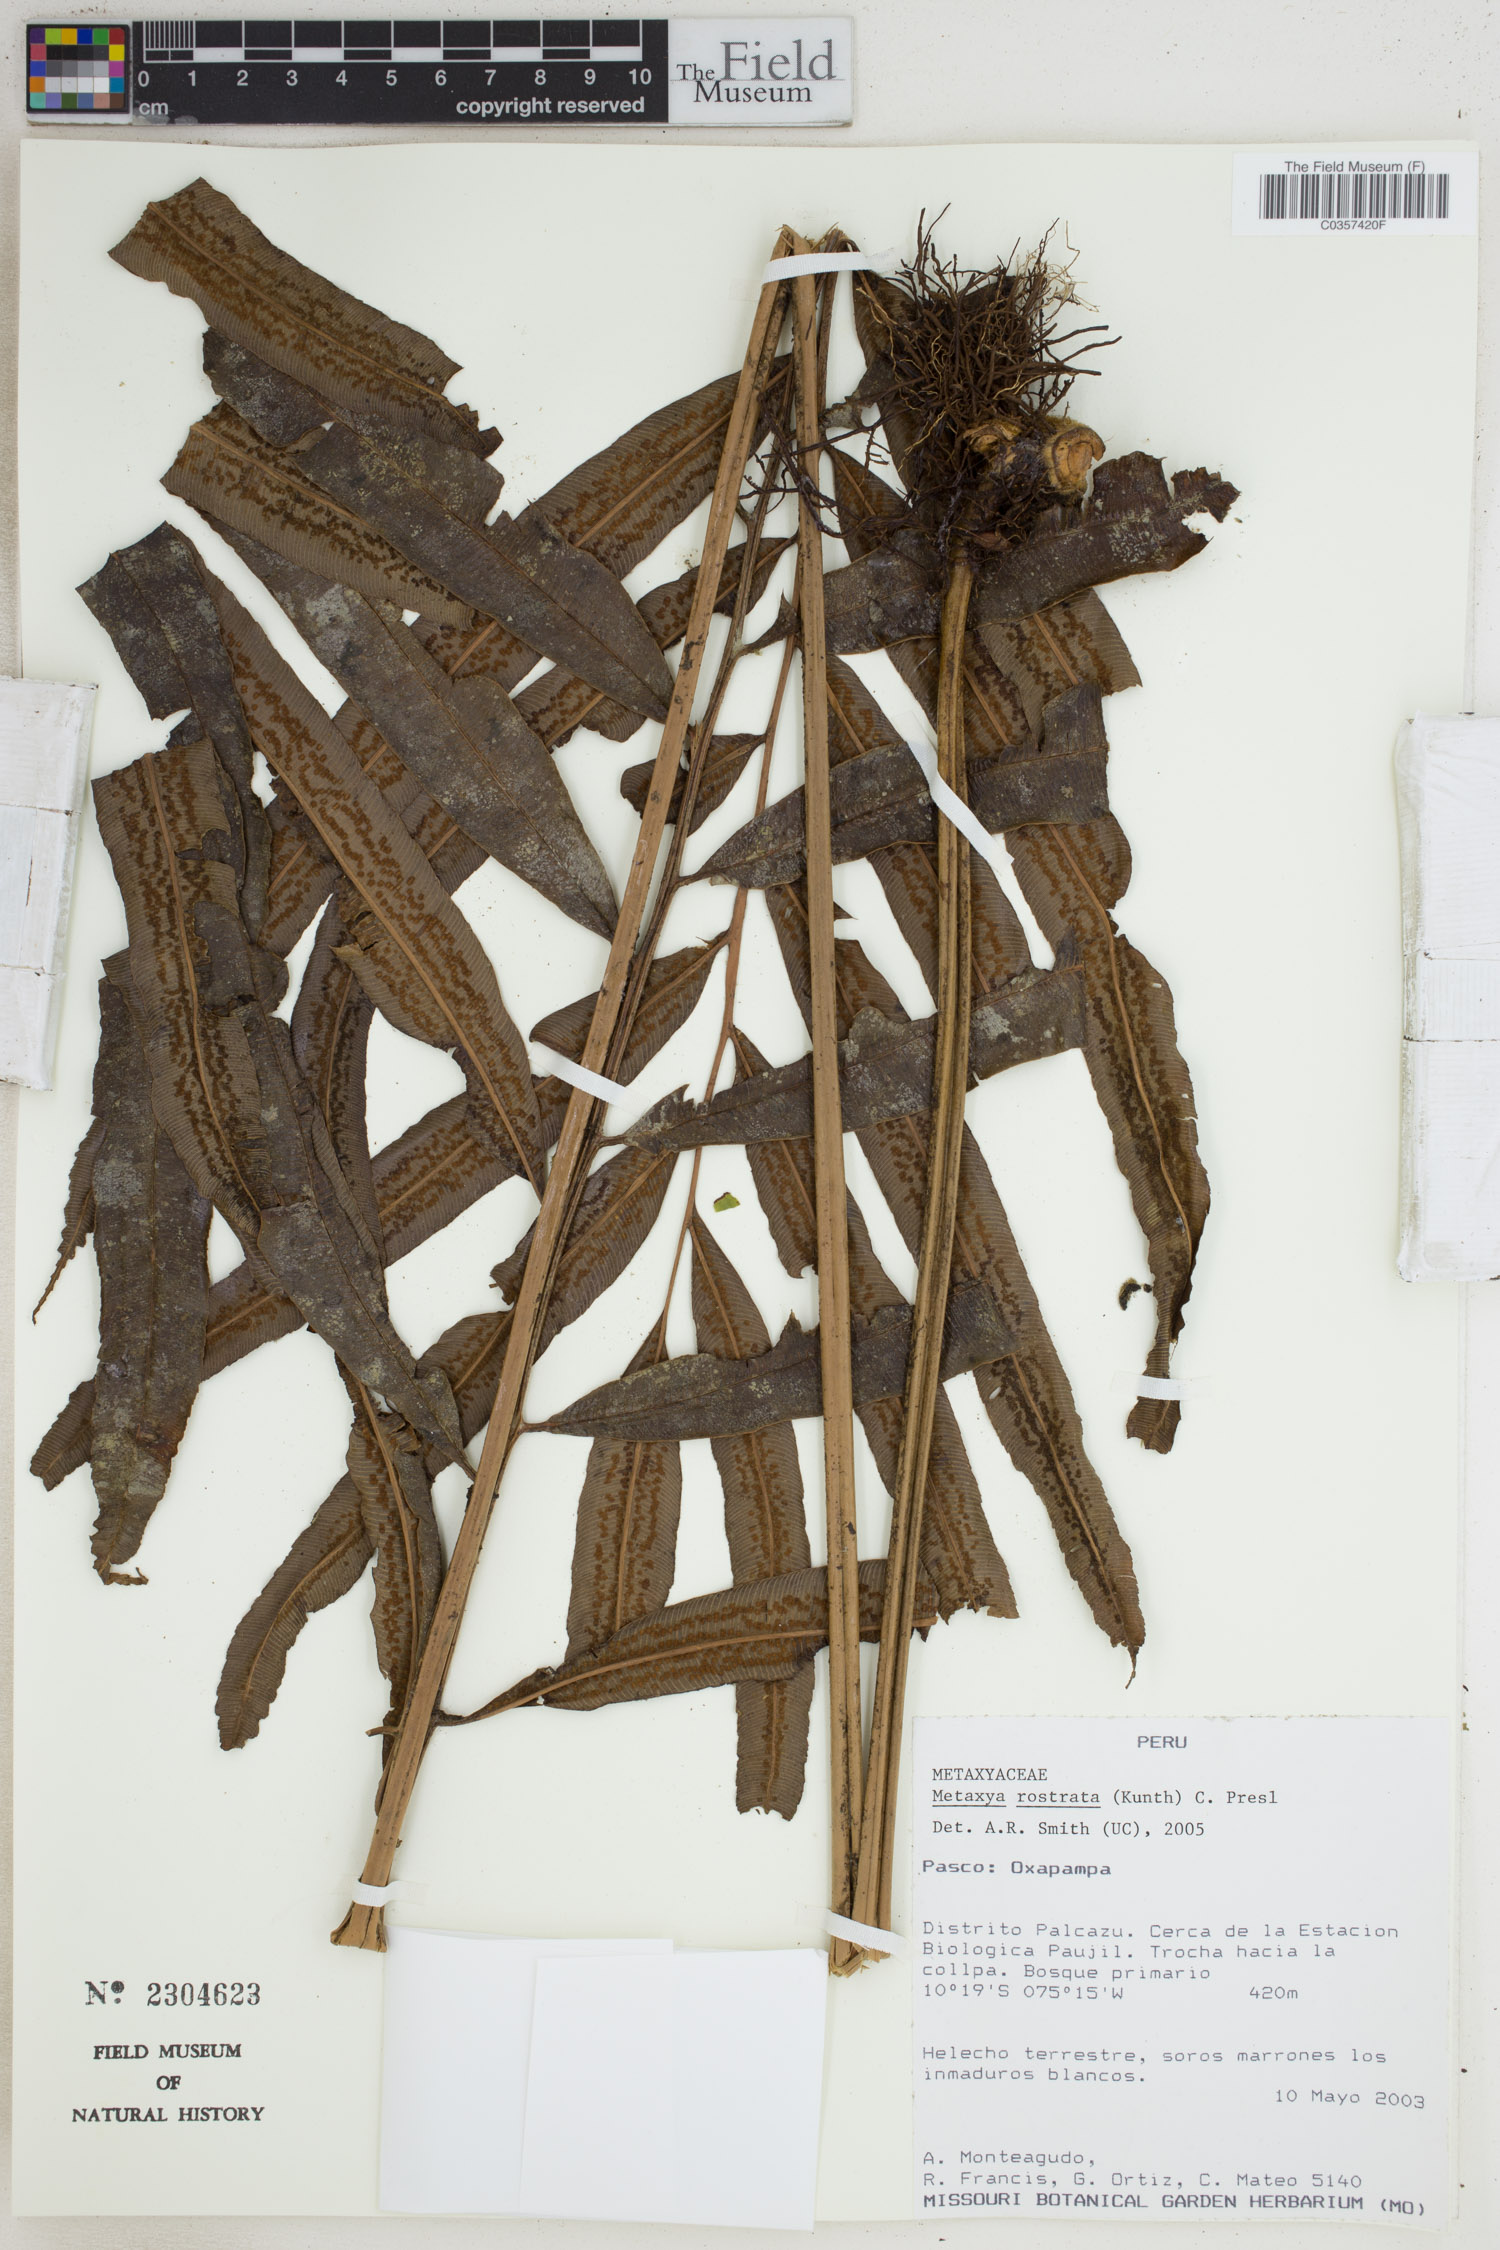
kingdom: Plantae
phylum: Tracheophyta
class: Polypodiopsida
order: Cyatheales
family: Metaxyaceae
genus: Metaxya
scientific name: Metaxya rostrata
